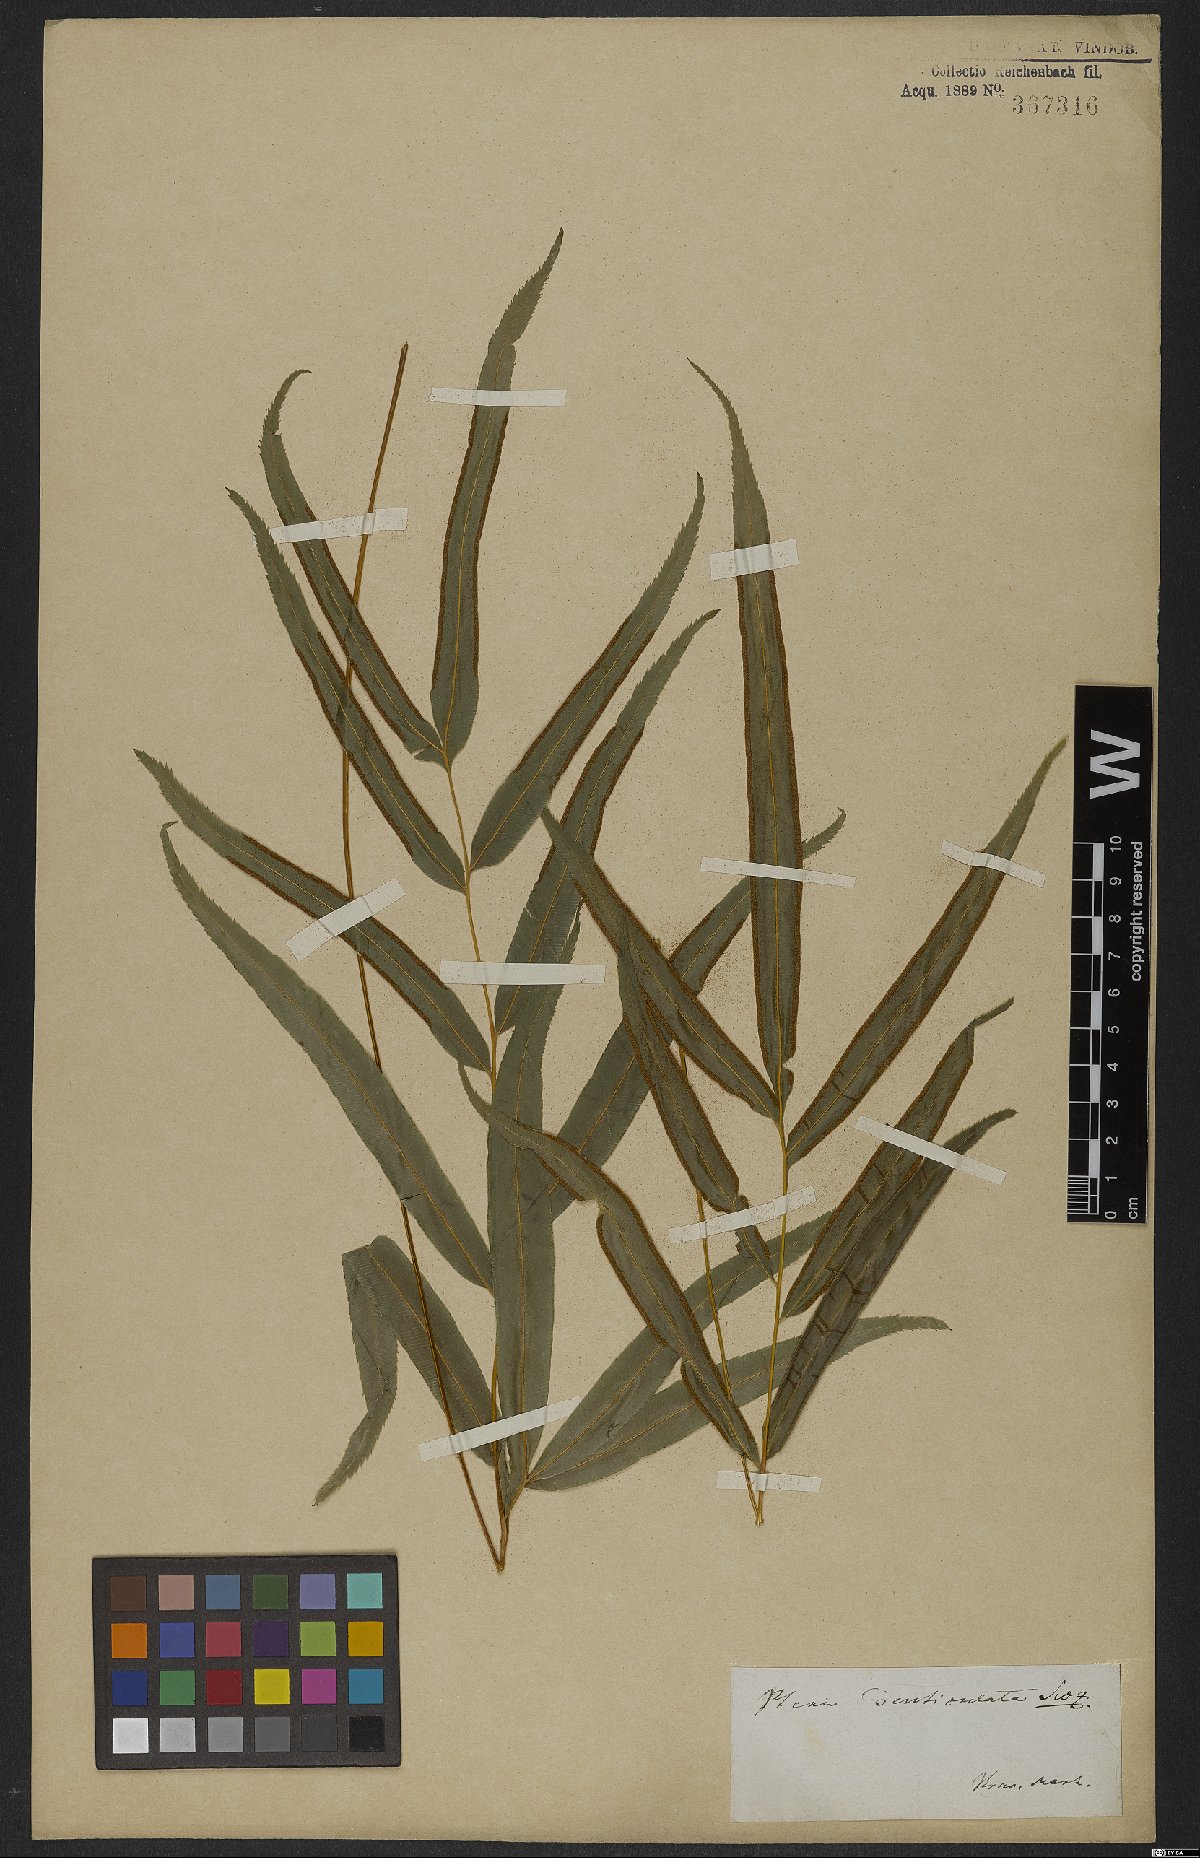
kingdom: Plantae
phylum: Tracheophyta
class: Polypodiopsida
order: Polypodiales
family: Pteridaceae
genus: Pteris
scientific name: Pteris denticulata
